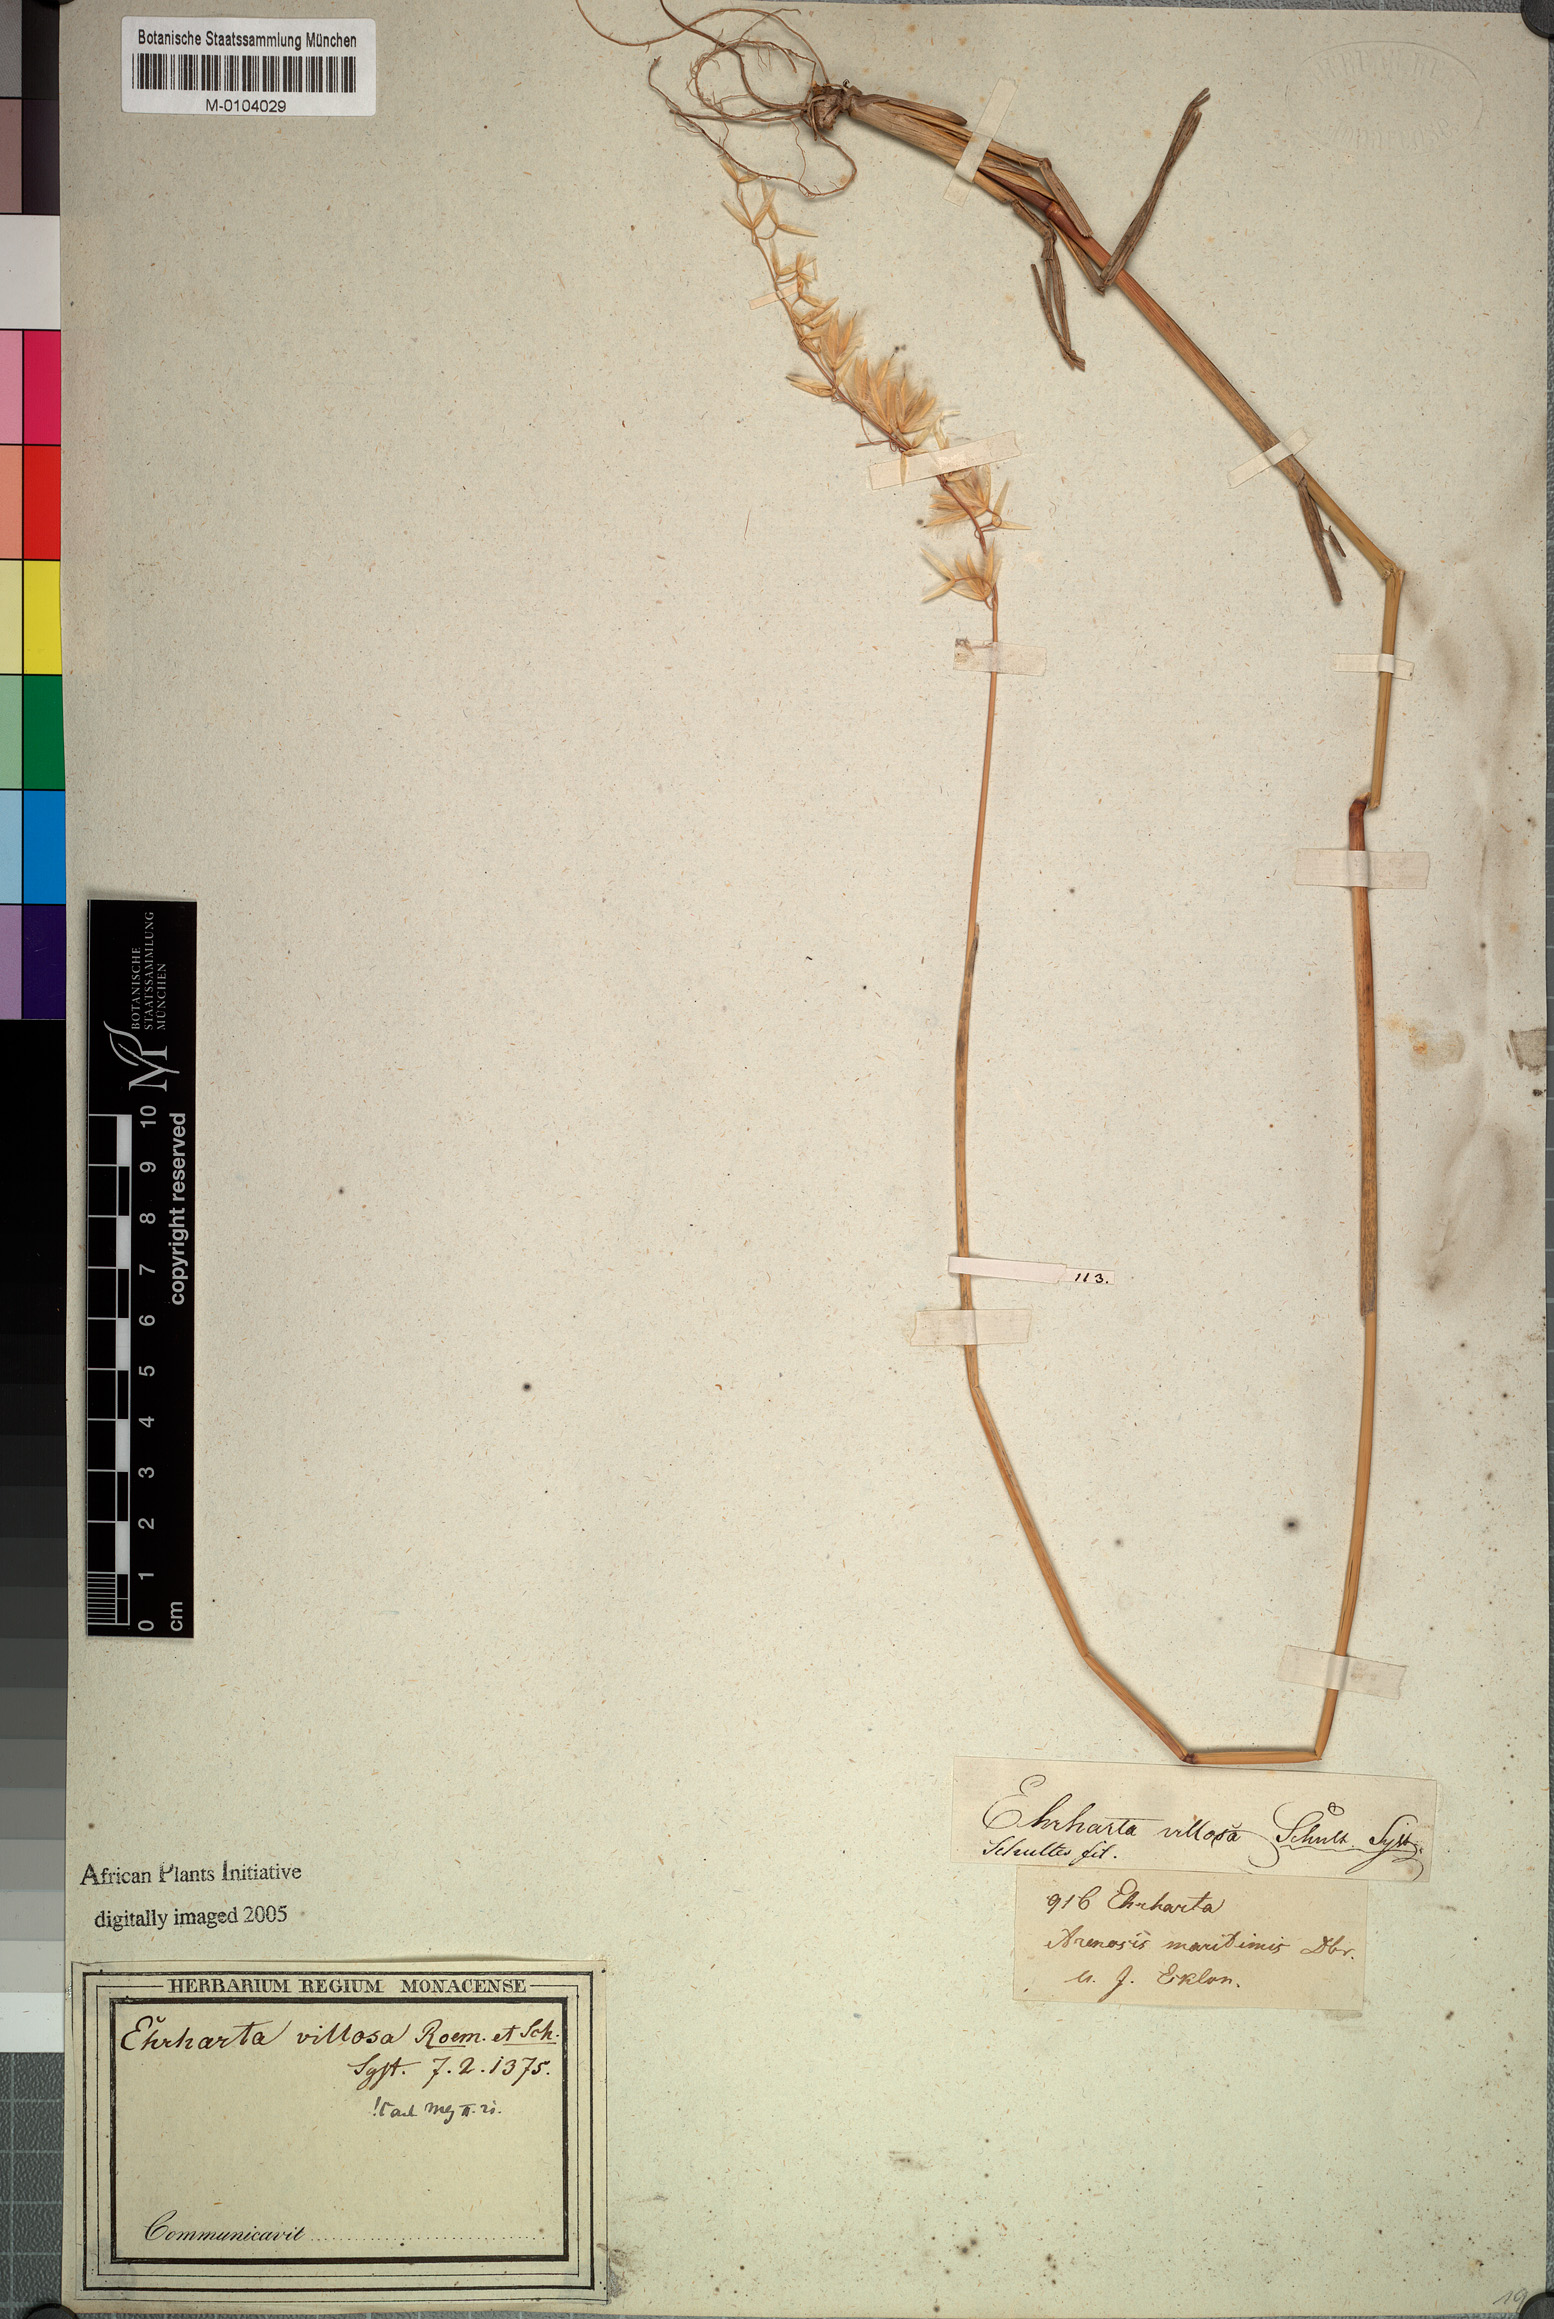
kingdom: Plantae
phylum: Tracheophyta
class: Liliopsida
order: Poales
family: Poaceae
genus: Ehrharta
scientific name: Ehrharta villosa
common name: Pyp grass
